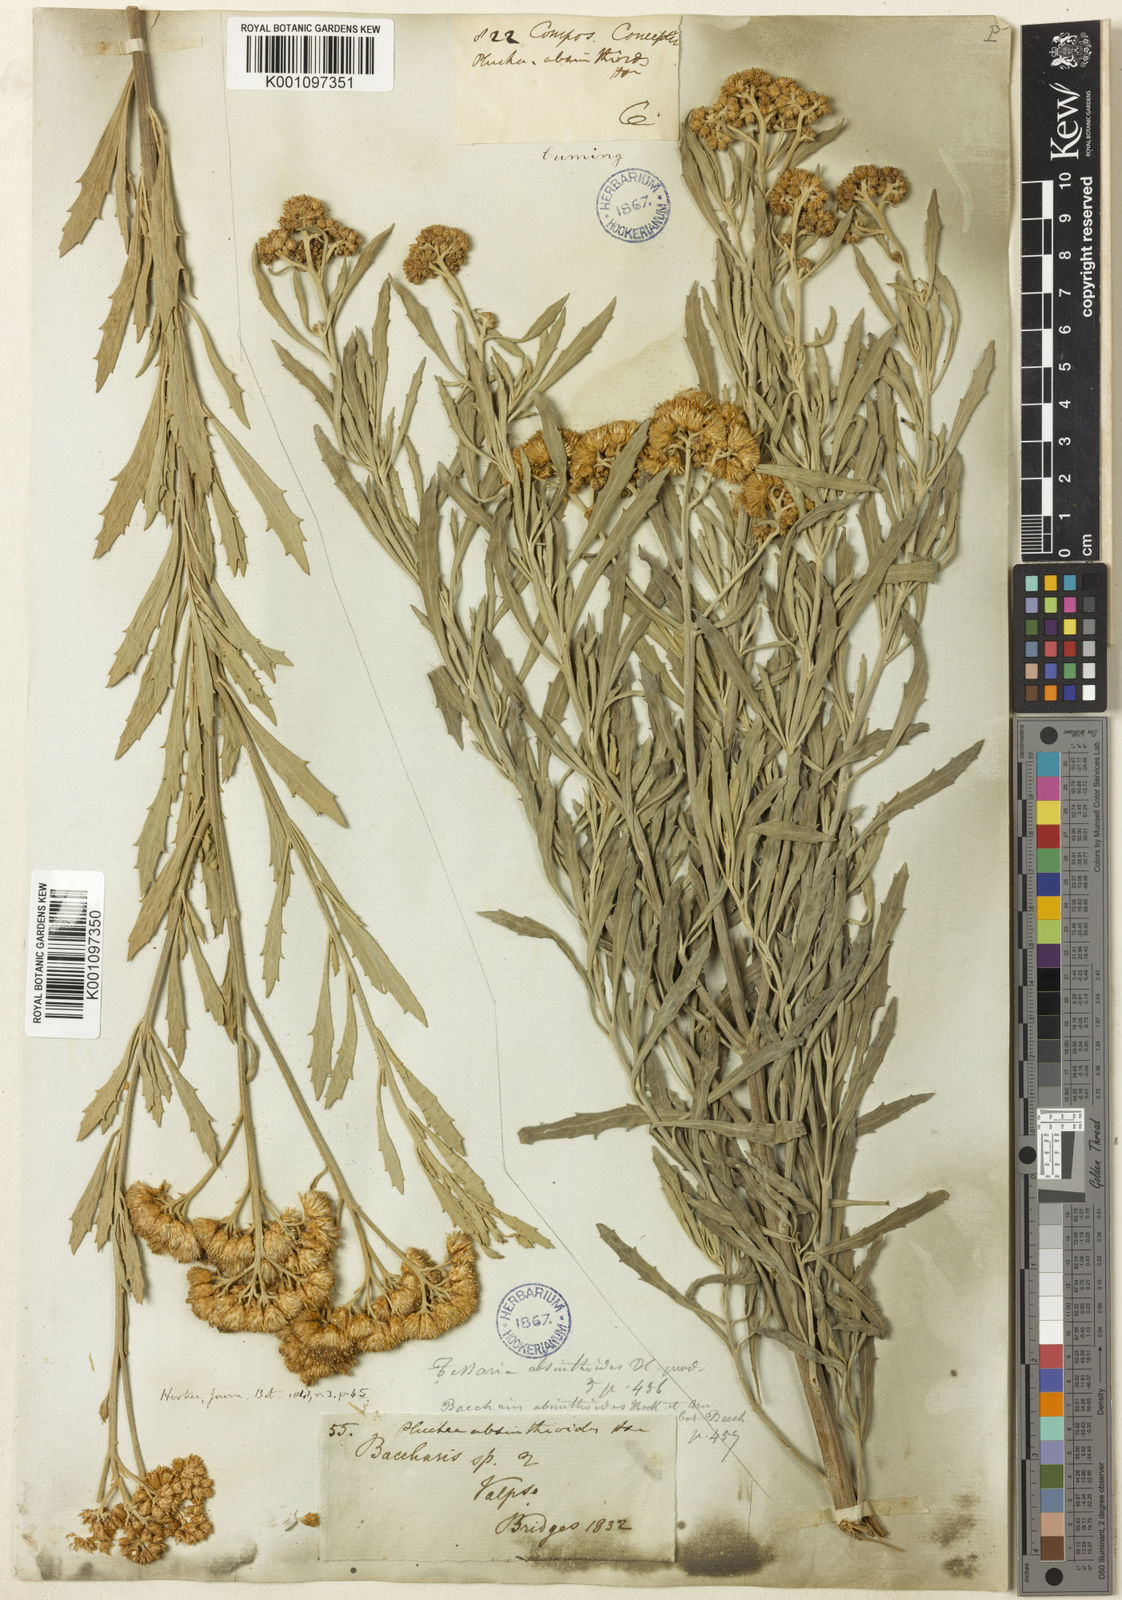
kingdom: Plantae
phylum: Tracheophyta
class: Magnoliopsida
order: Asterales
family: Asteraceae
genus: Tessaria
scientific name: Tessaria absinthioides
